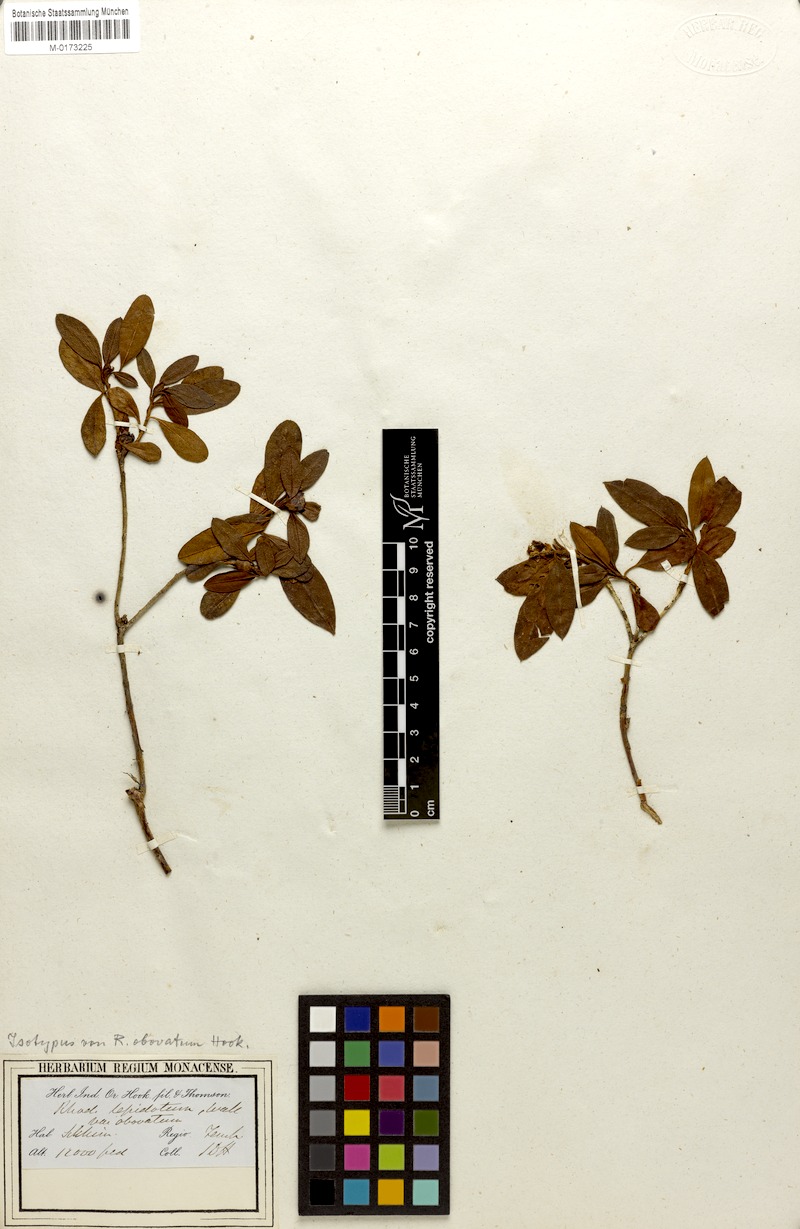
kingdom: Plantae
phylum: Tracheophyta
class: Magnoliopsida
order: Ericales
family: Ericaceae
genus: Rhododendron
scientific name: Rhododendron lepidotum
